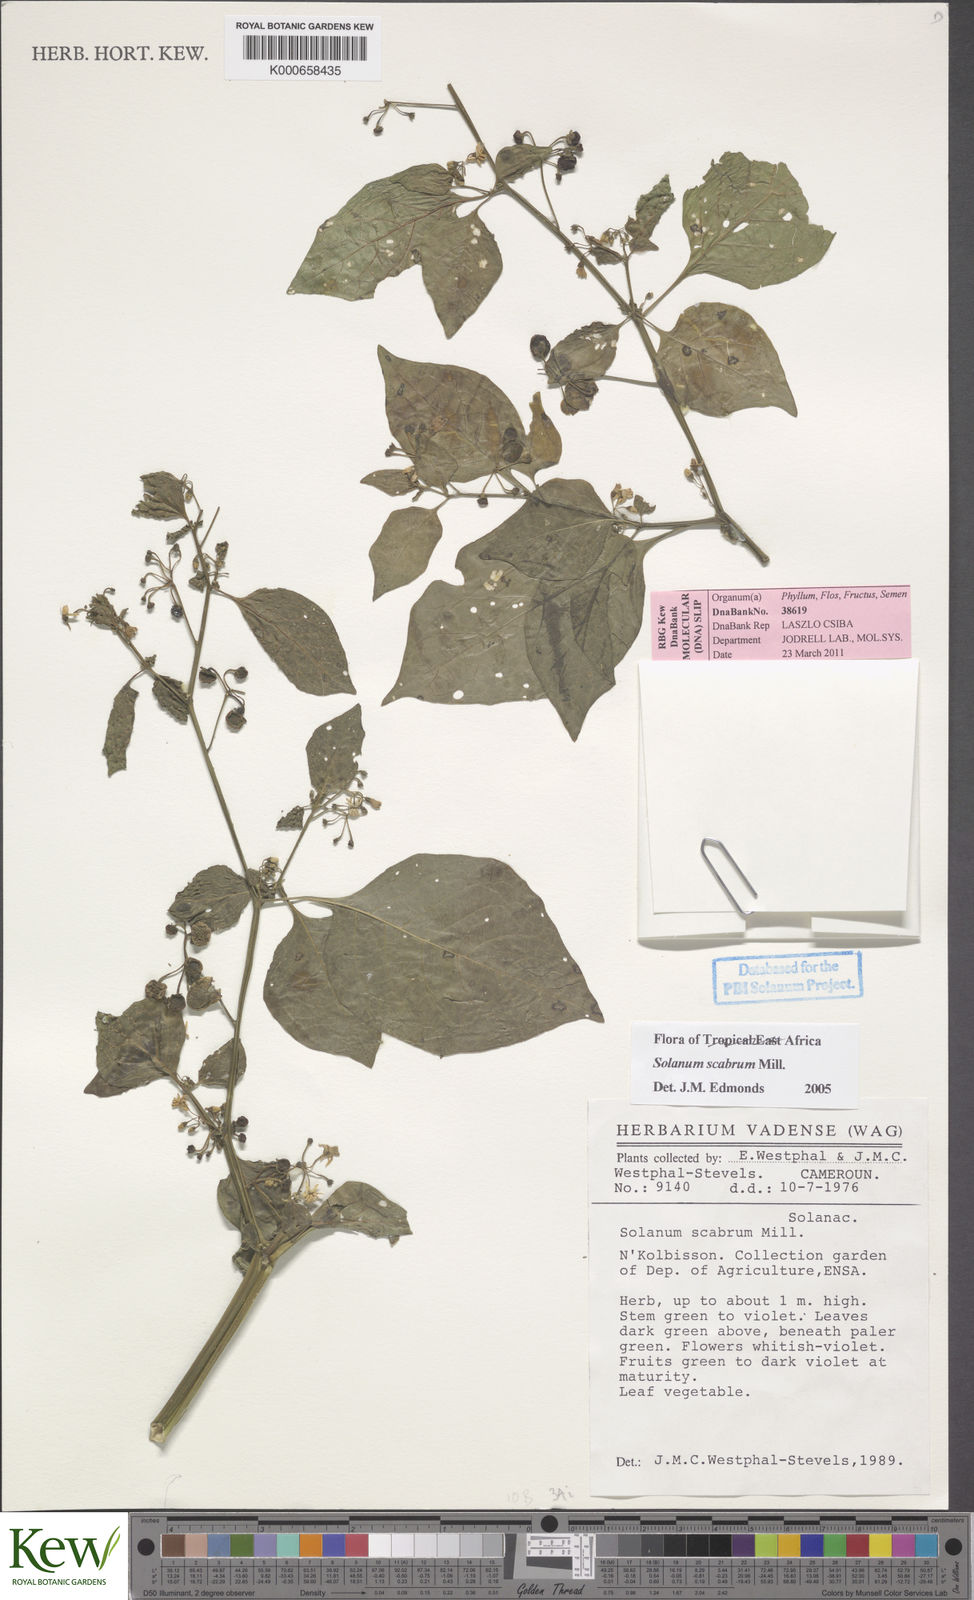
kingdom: Plantae
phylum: Tracheophyta
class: Magnoliopsida
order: Solanales
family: Solanaceae
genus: Solanum
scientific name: Solanum scabrum
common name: Garden-huckleberry
